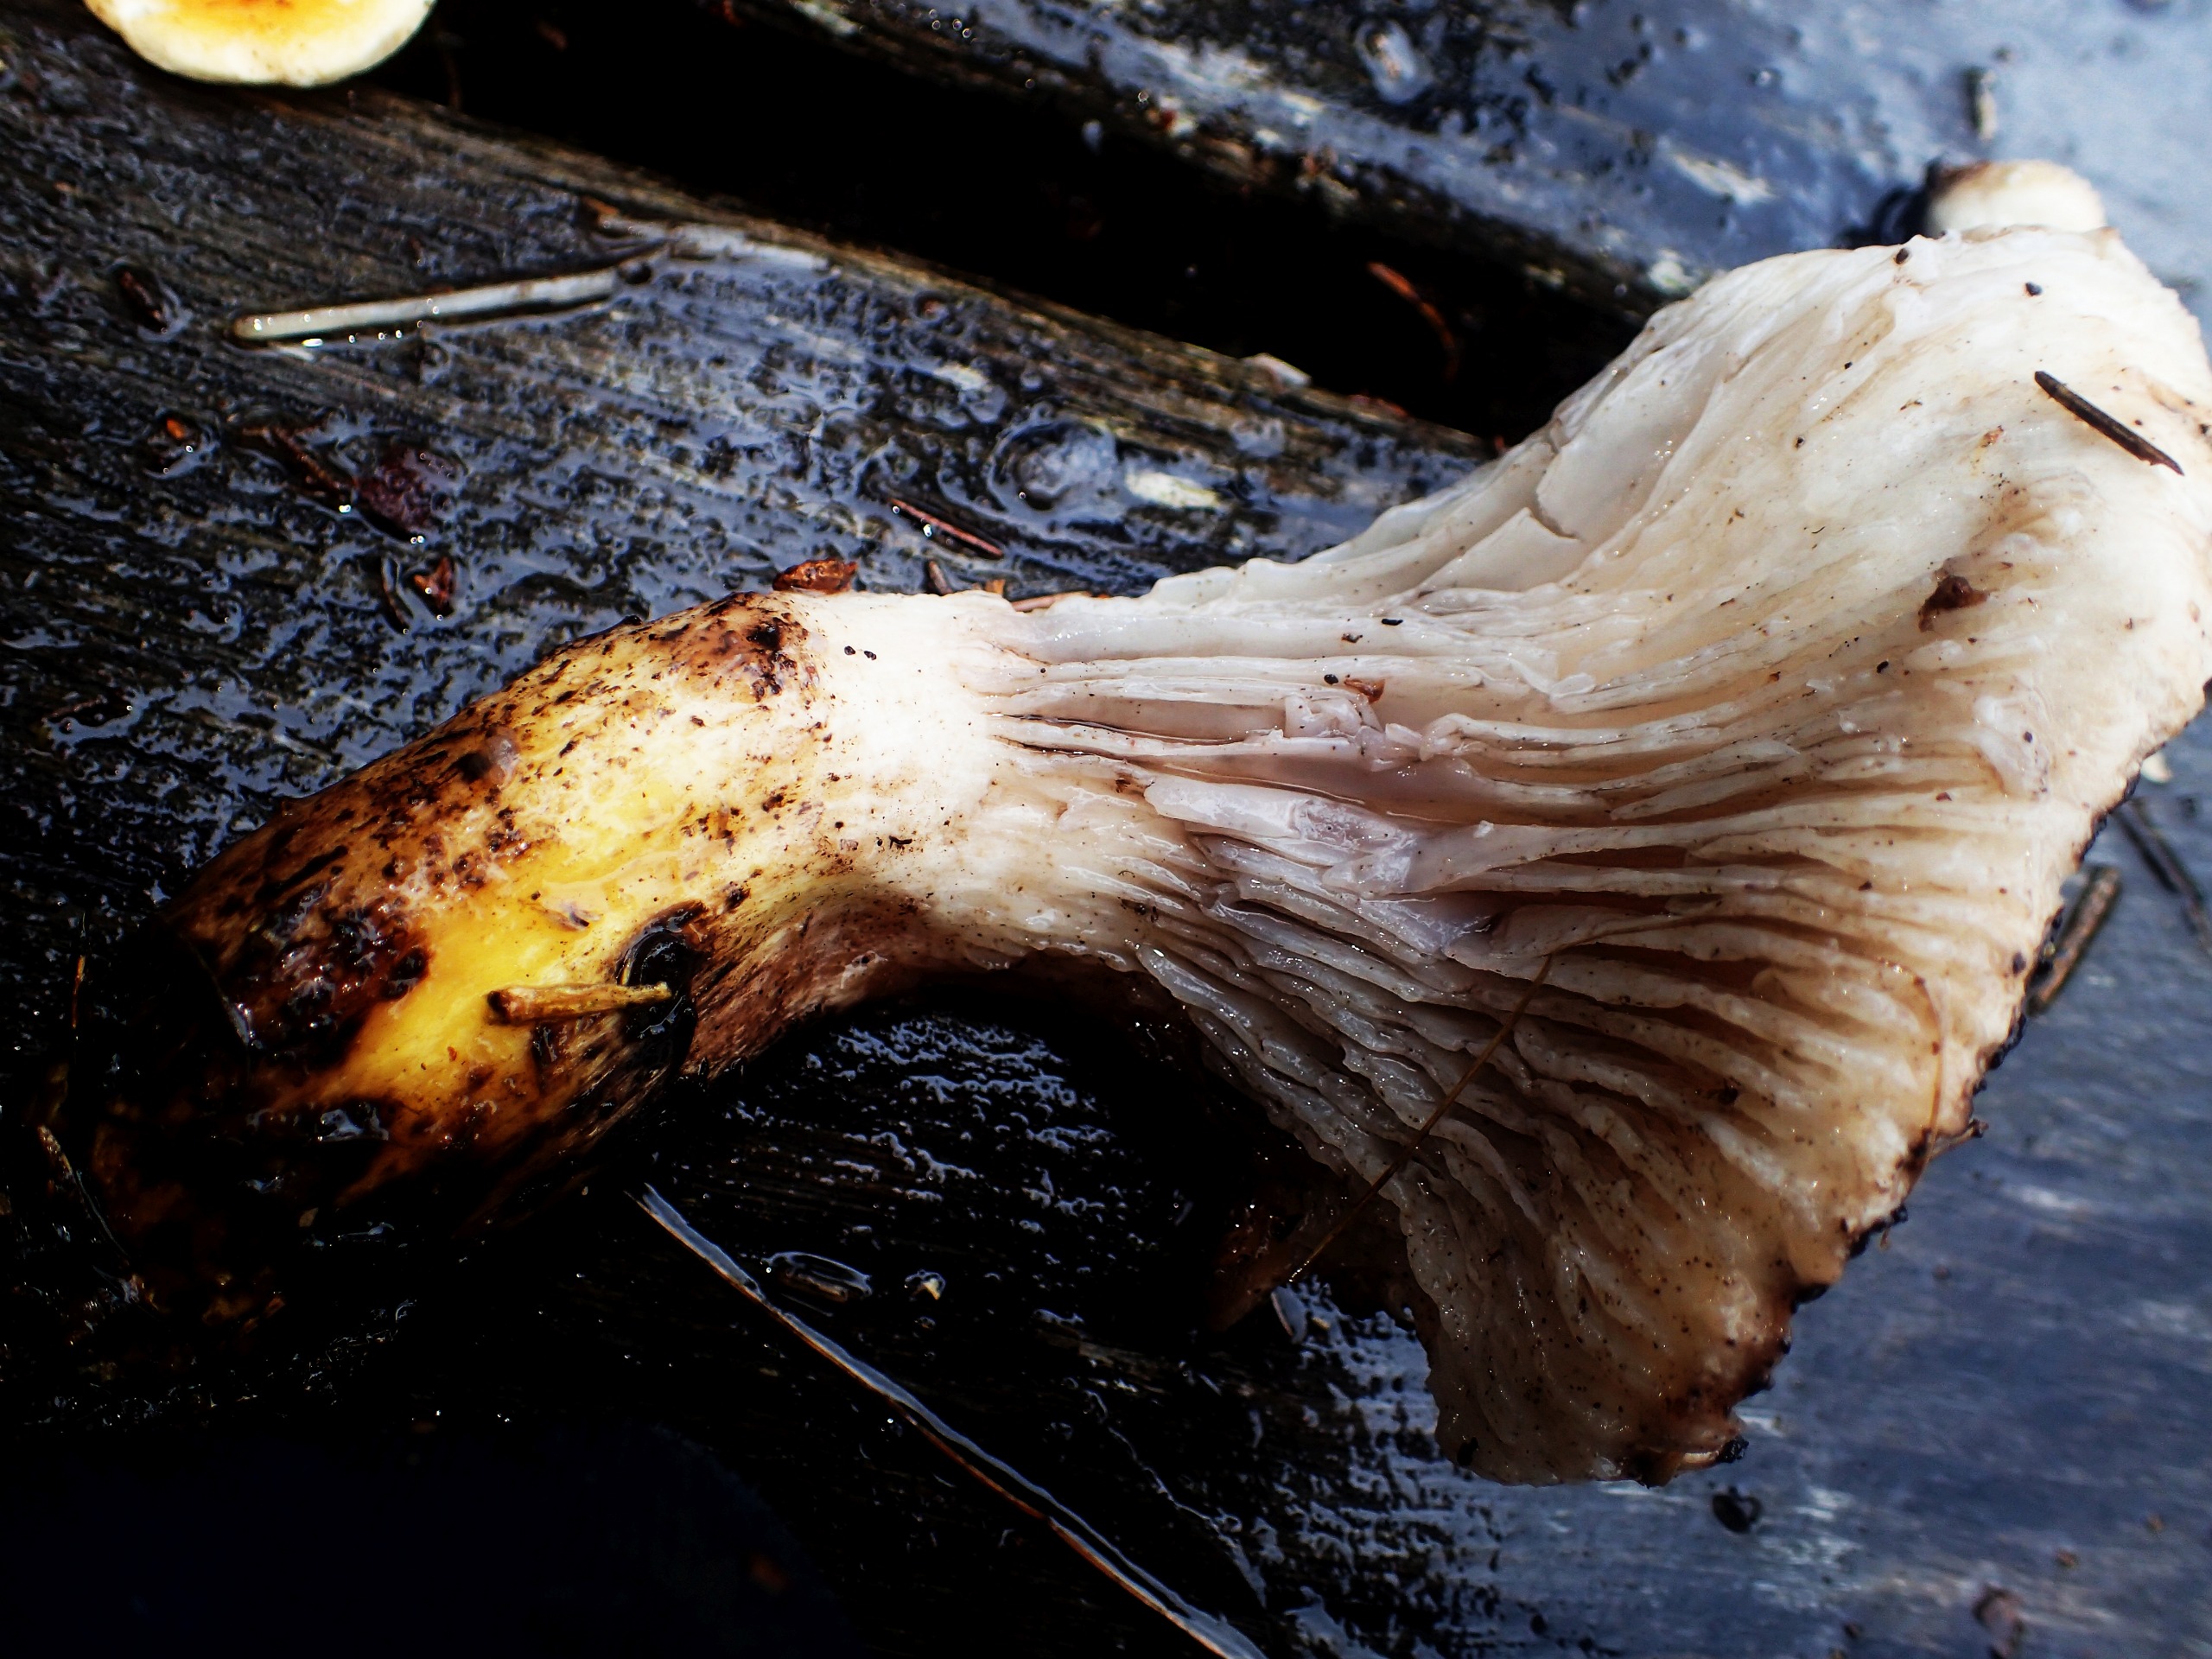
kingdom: Fungi
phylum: Basidiomycota
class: Agaricomycetes
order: Boletales
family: Gomphidiaceae
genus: Gomphidius
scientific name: Gomphidius glutinosus
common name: Grå slimslør
